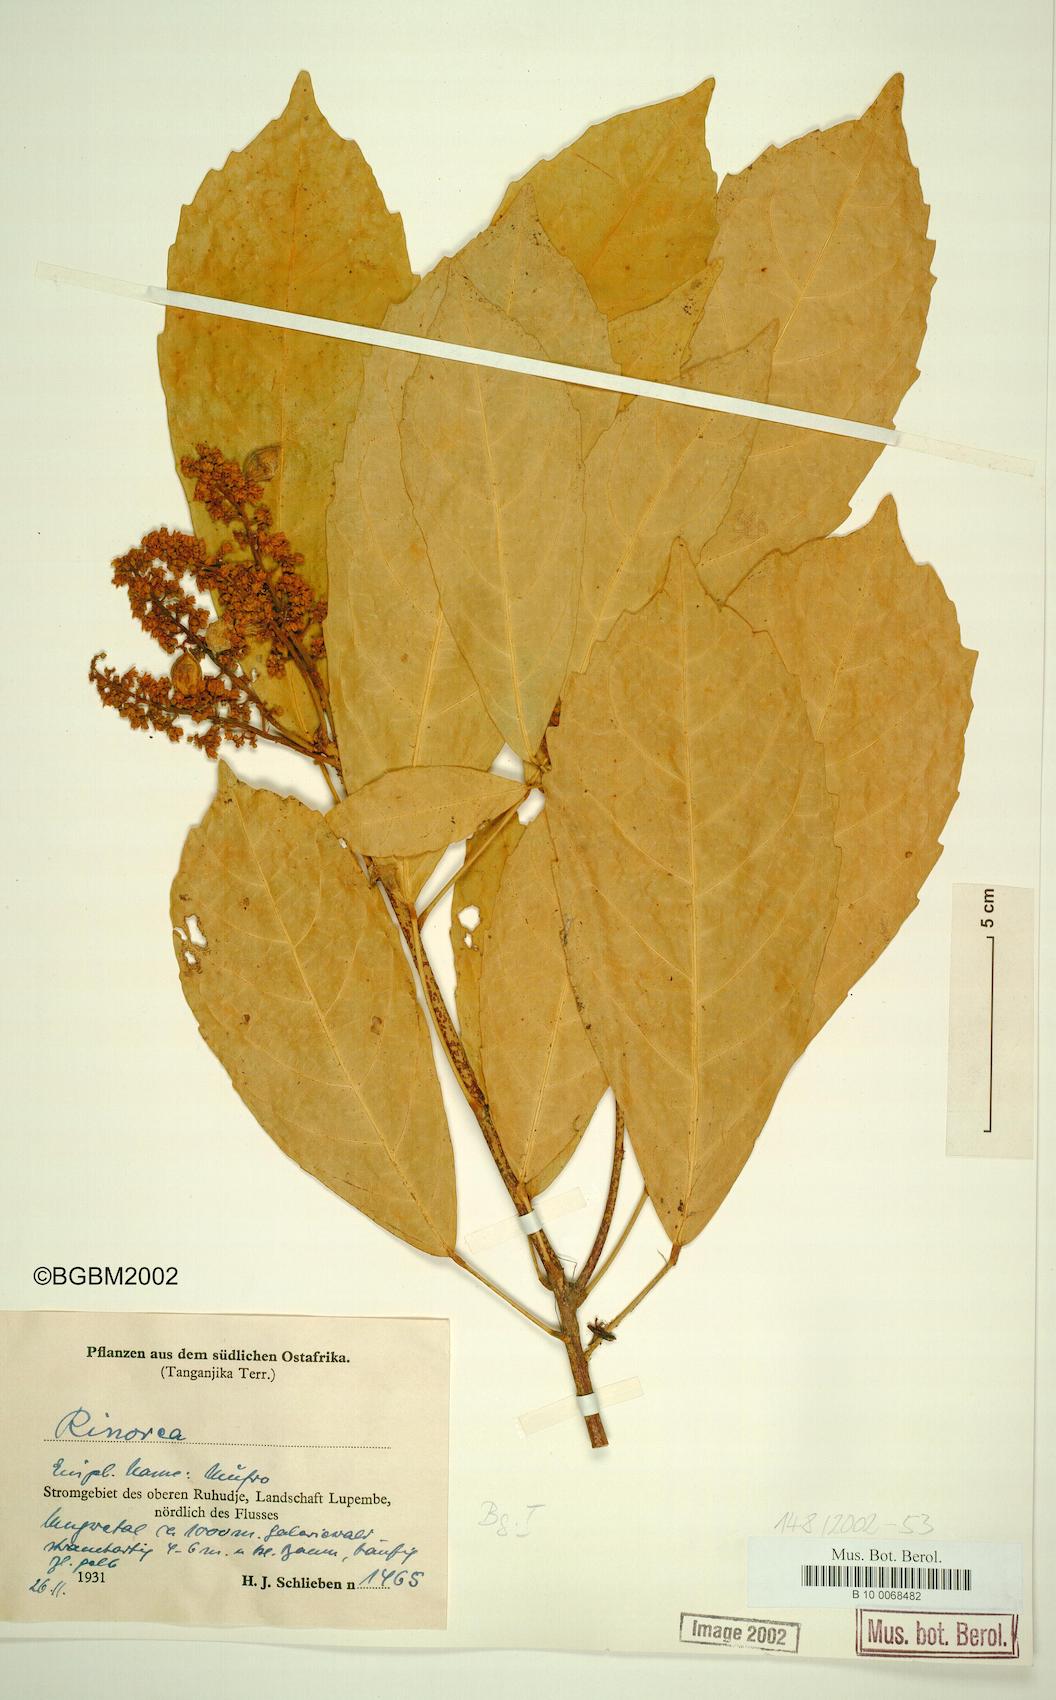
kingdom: Plantae
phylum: Tracheophyta
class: Magnoliopsida
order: Malpighiales
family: Violaceae
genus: Rinorea
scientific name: Rinorea
